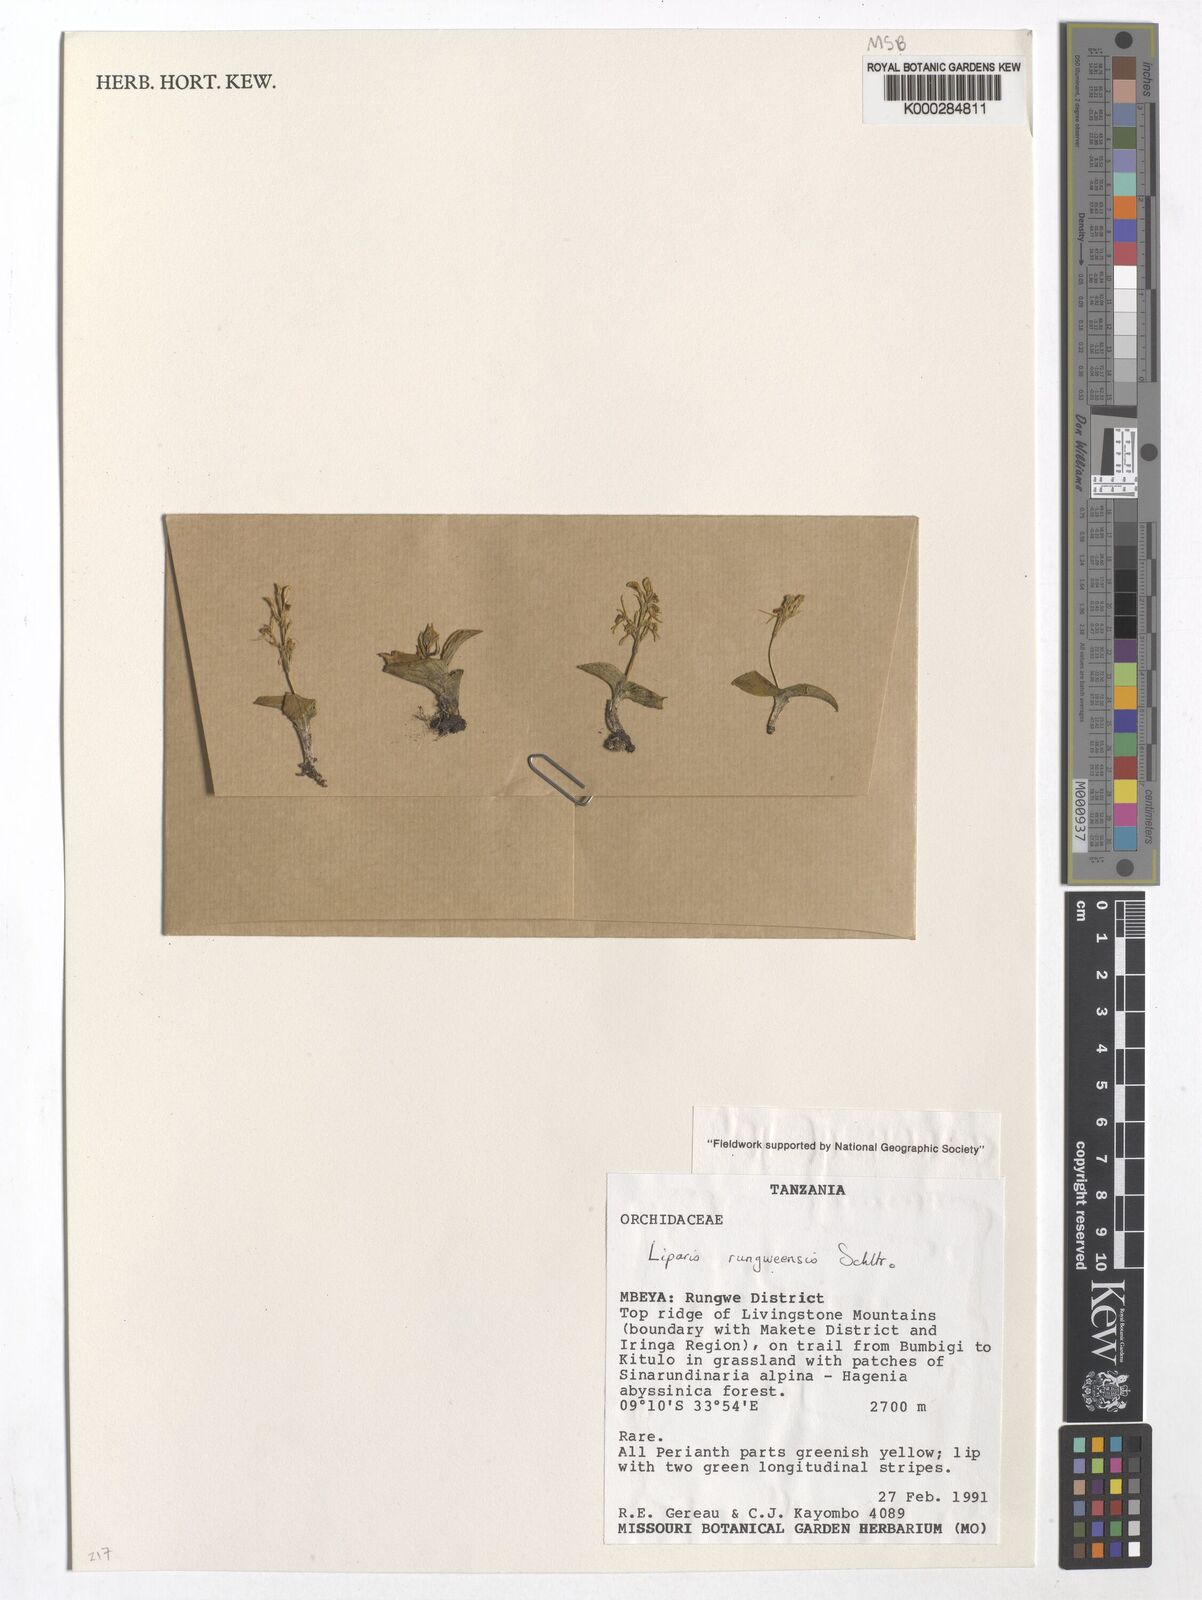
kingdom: Plantae
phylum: Tracheophyta
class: Liliopsida
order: Asparagales
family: Orchidaceae
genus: Liparis
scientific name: Liparis rungweensis
